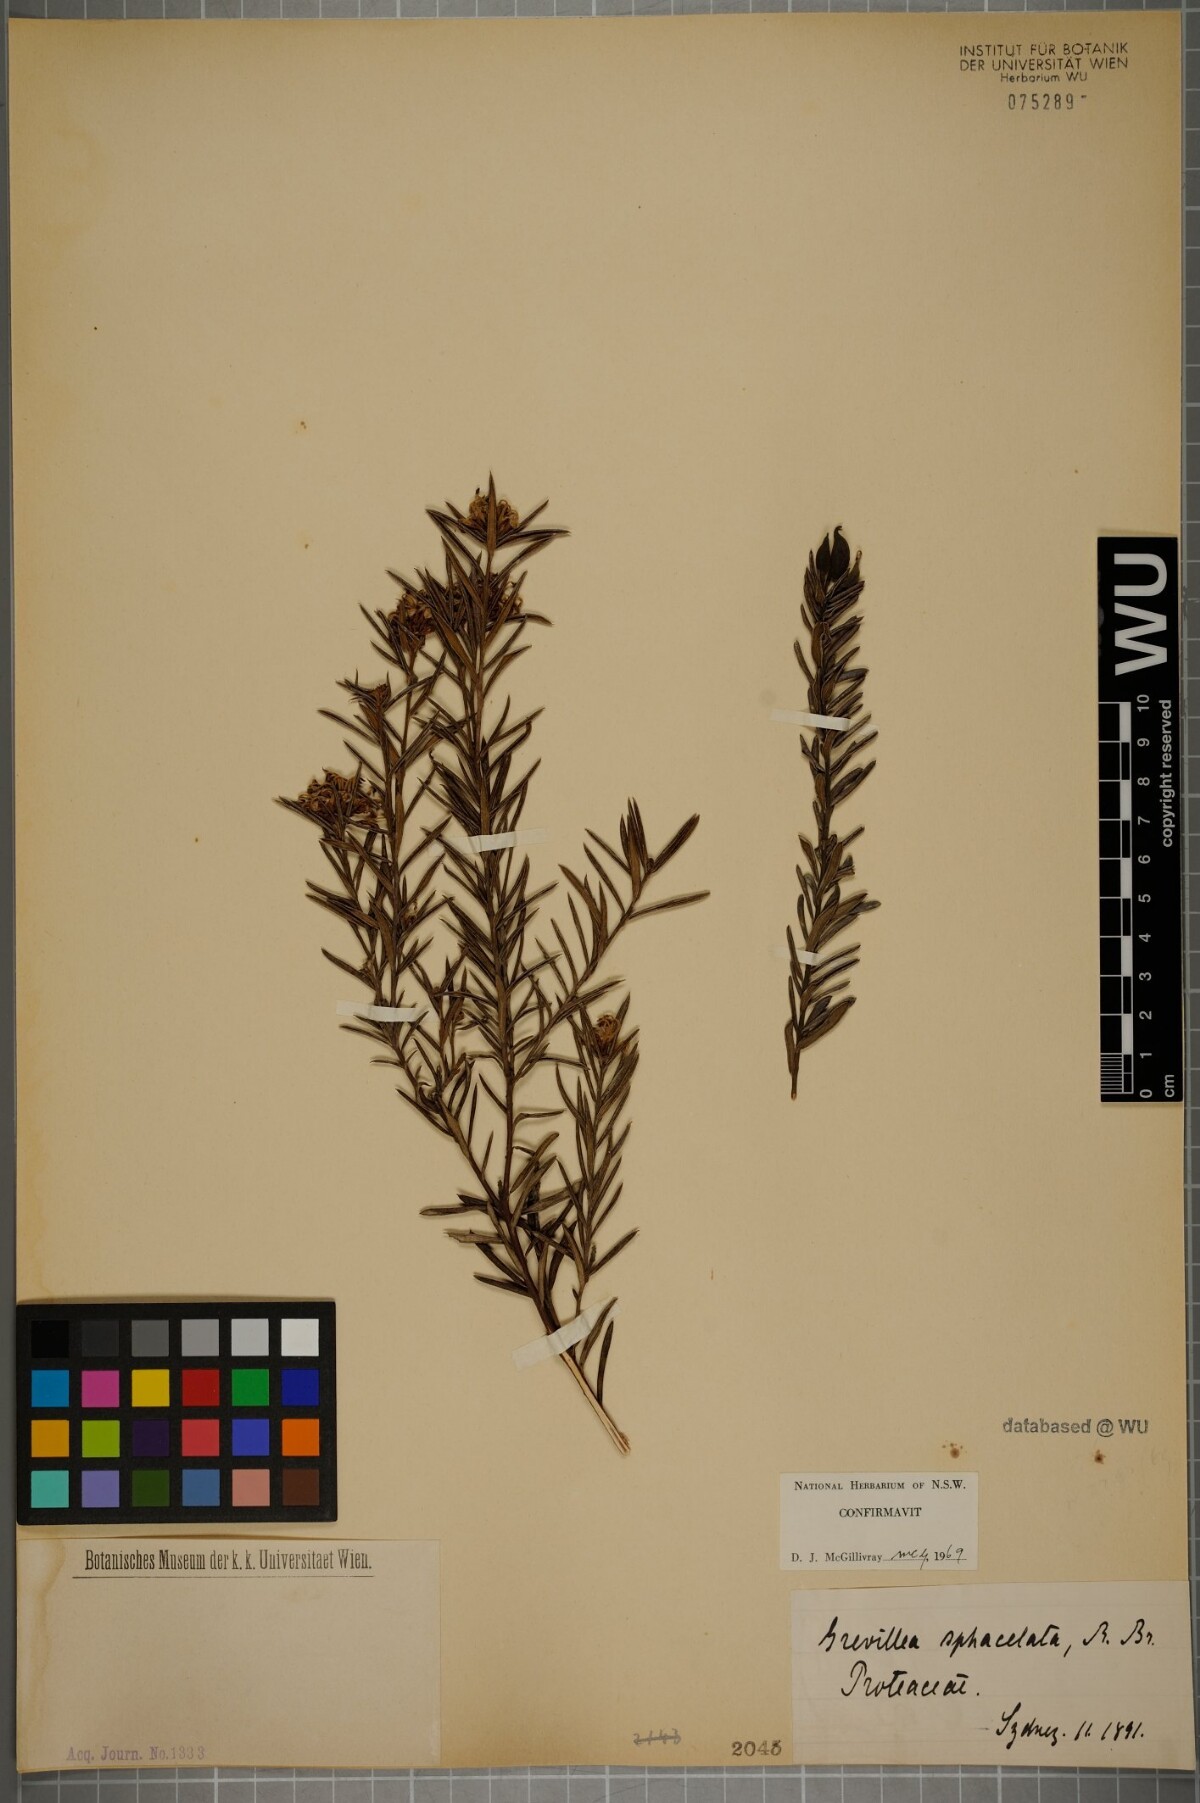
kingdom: Plantae
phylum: Tracheophyta
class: Magnoliopsida
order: Proteales
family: Proteaceae
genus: Grevillea
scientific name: Grevillea sphacelata
